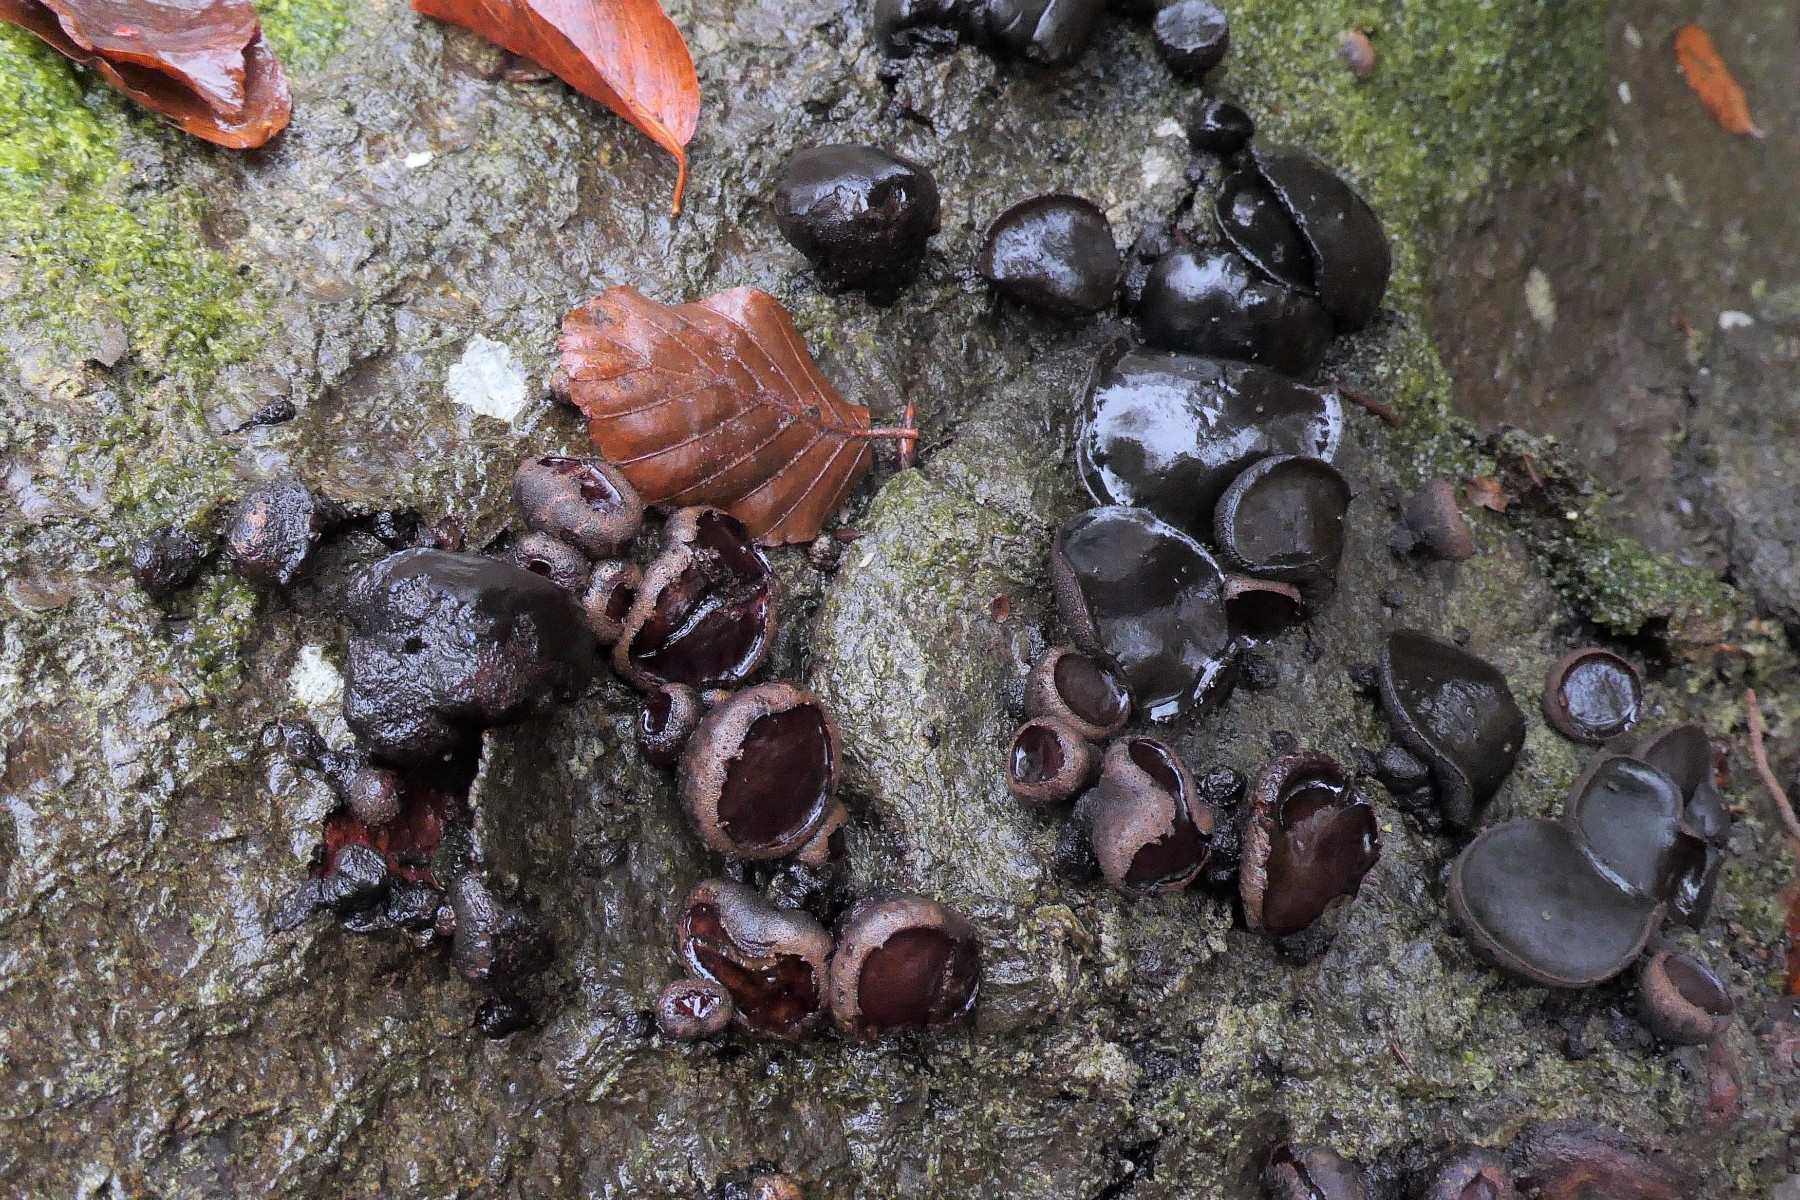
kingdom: Fungi
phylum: Ascomycota
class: Leotiomycetes
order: Phacidiales
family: Phacidiaceae
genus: Bulgaria
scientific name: Bulgaria inquinans
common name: afsmittende topsvamp
